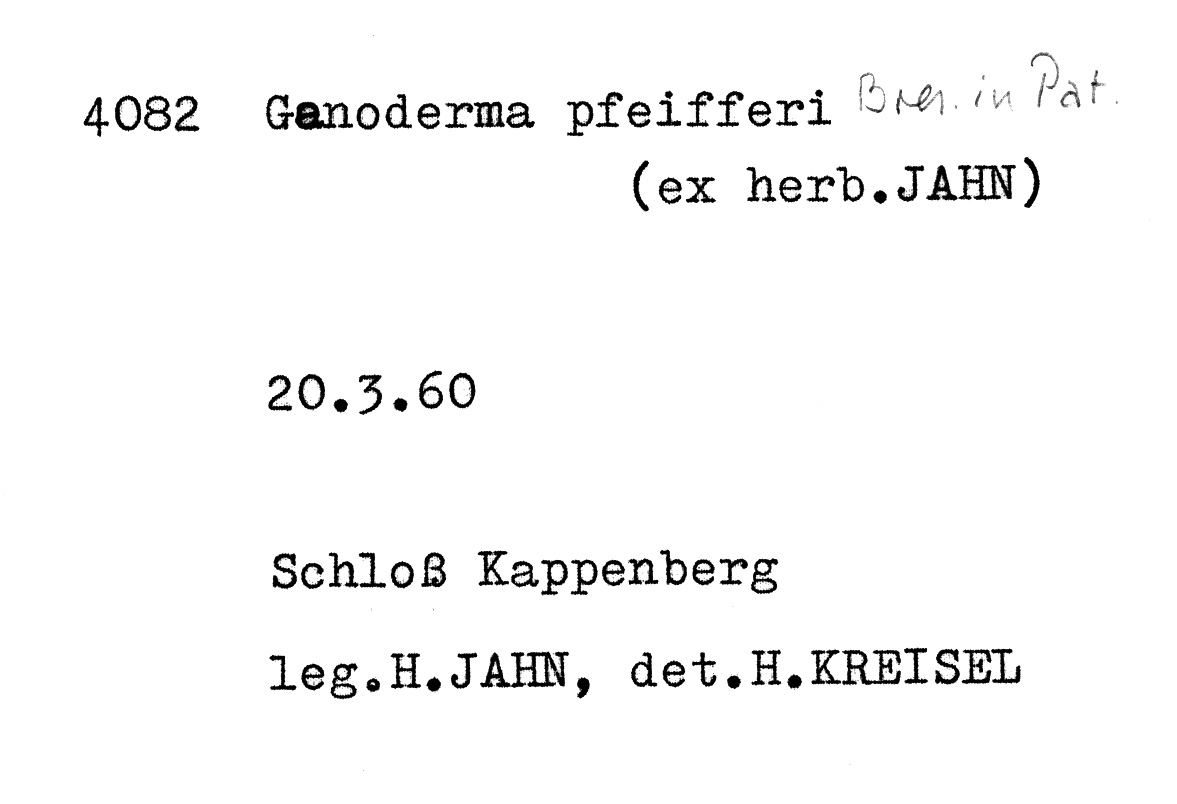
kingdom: Fungi
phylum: Basidiomycota
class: Agaricomycetes
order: Polyporales
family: Polyporaceae
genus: Ganoderma
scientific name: Ganoderma pfeifferi
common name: Beeswax bracket
